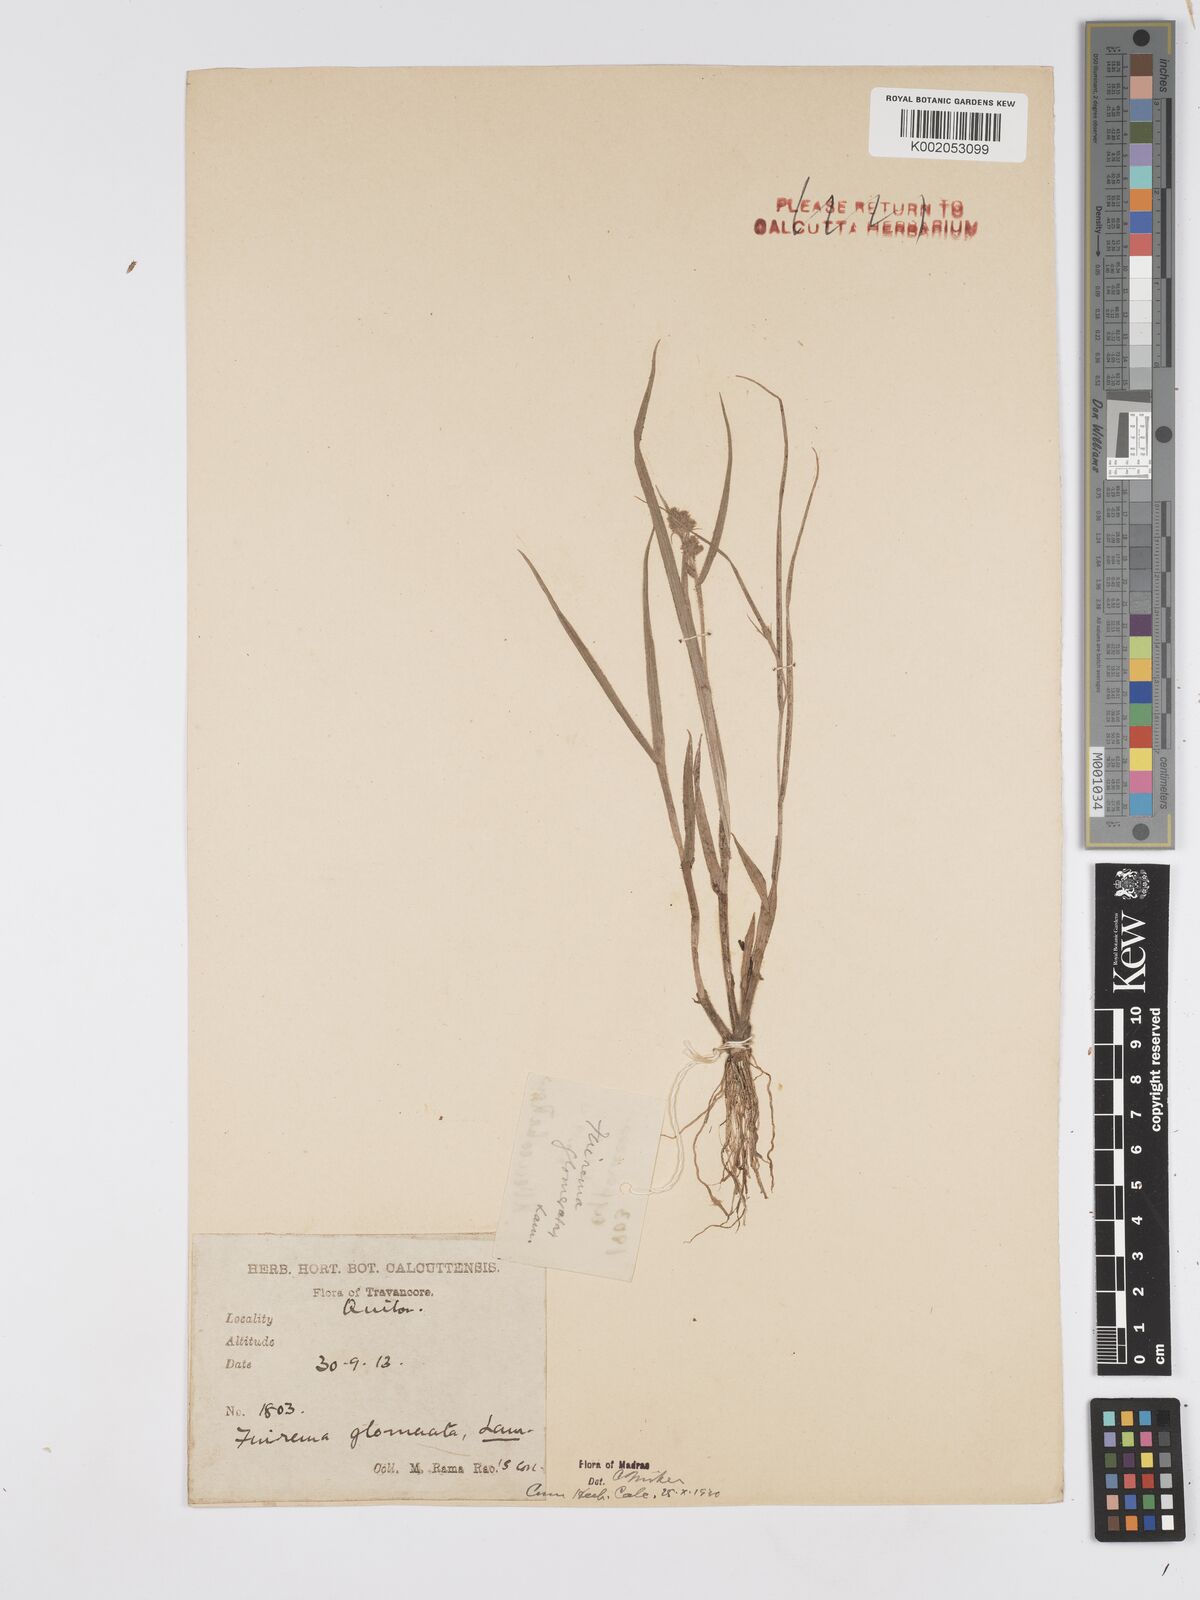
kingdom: Plantae
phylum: Tracheophyta
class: Liliopsida
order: Poales
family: Cyperaceae
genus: Fuirena
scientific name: Fuirena ciliaris
